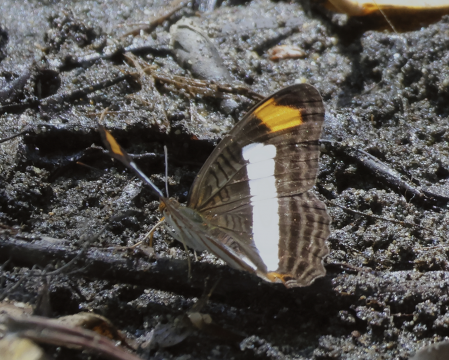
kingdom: Animalia
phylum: Arthropoda
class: Insecta
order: Lepidoptera
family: Nymphalidae
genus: Limenitis
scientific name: Limenitis Adelpha basiloides
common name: Spot-celled Sister
